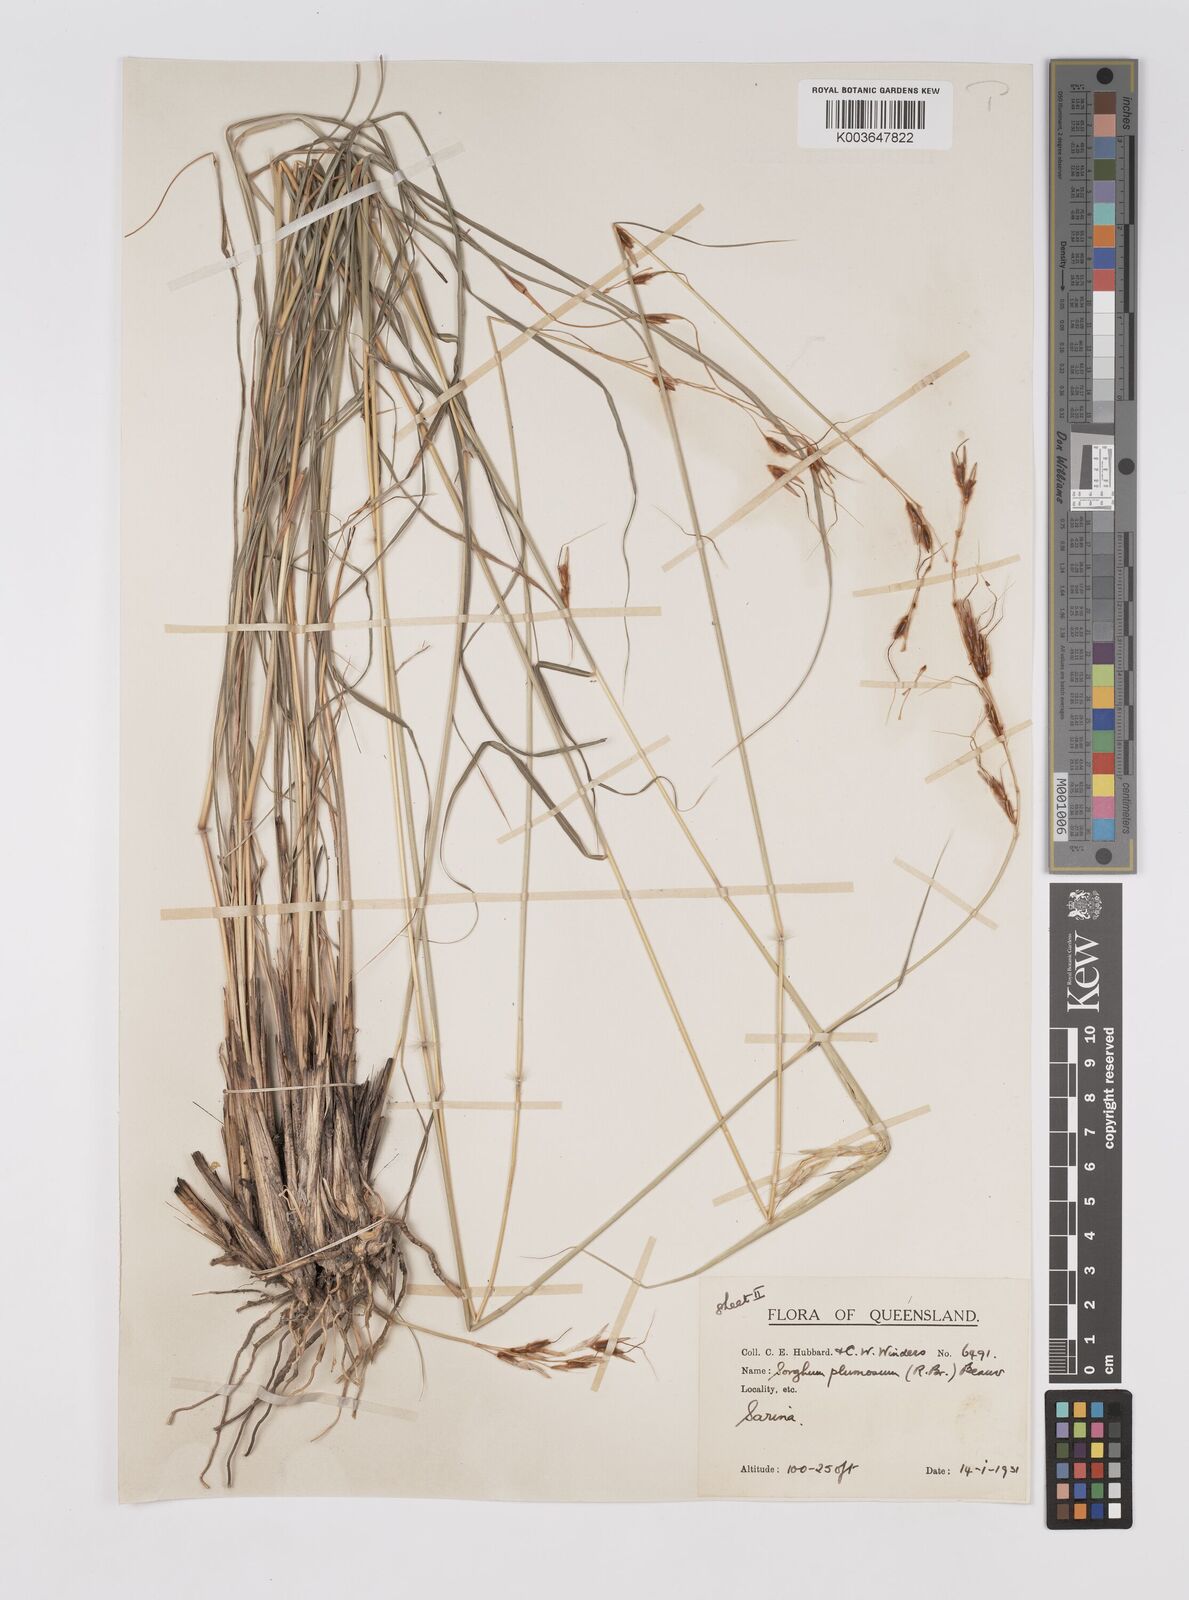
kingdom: Plantae
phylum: Tracheophyta
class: Liliopsida
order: Poales
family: Poaceae
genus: Sarga
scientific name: Sarga plumosa
